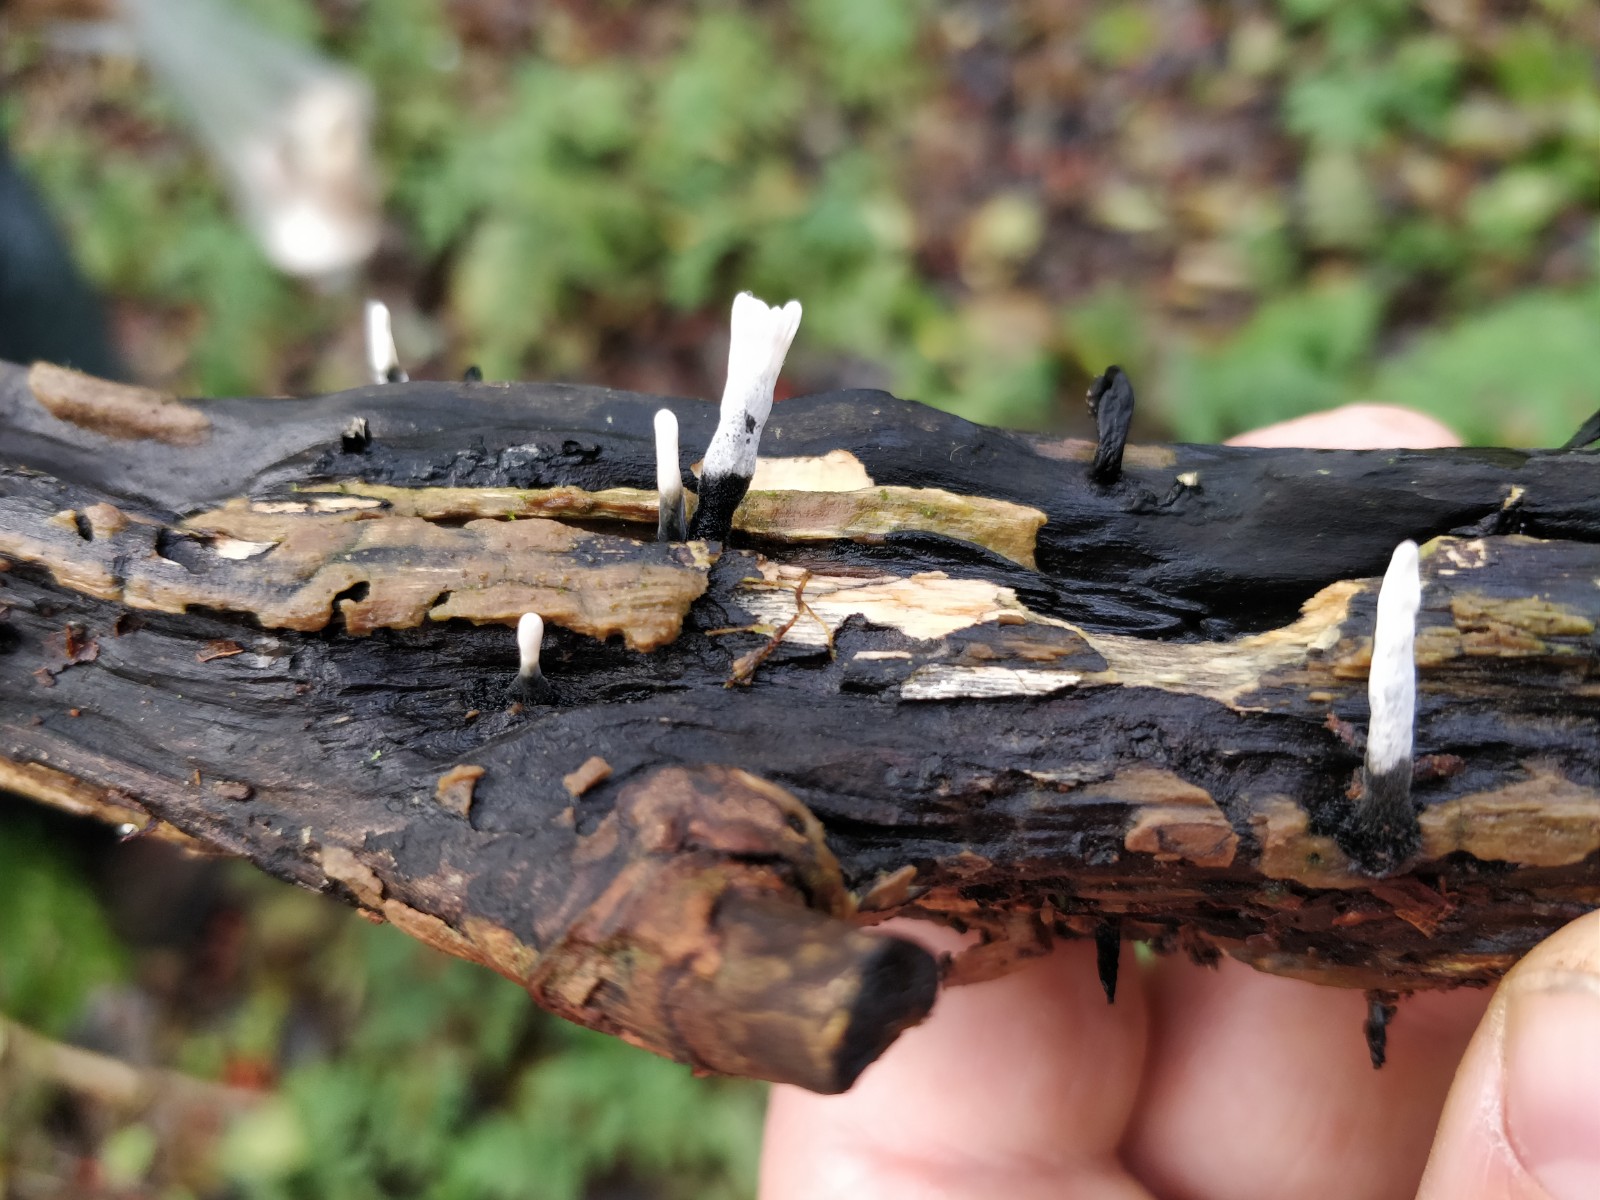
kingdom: Fungi
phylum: Ascomycota
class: Sordariomycetes
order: Xylariales
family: Xylariaceae
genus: Xylaria
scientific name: Xylaria hypoxylon
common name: grenet stødsvamp
